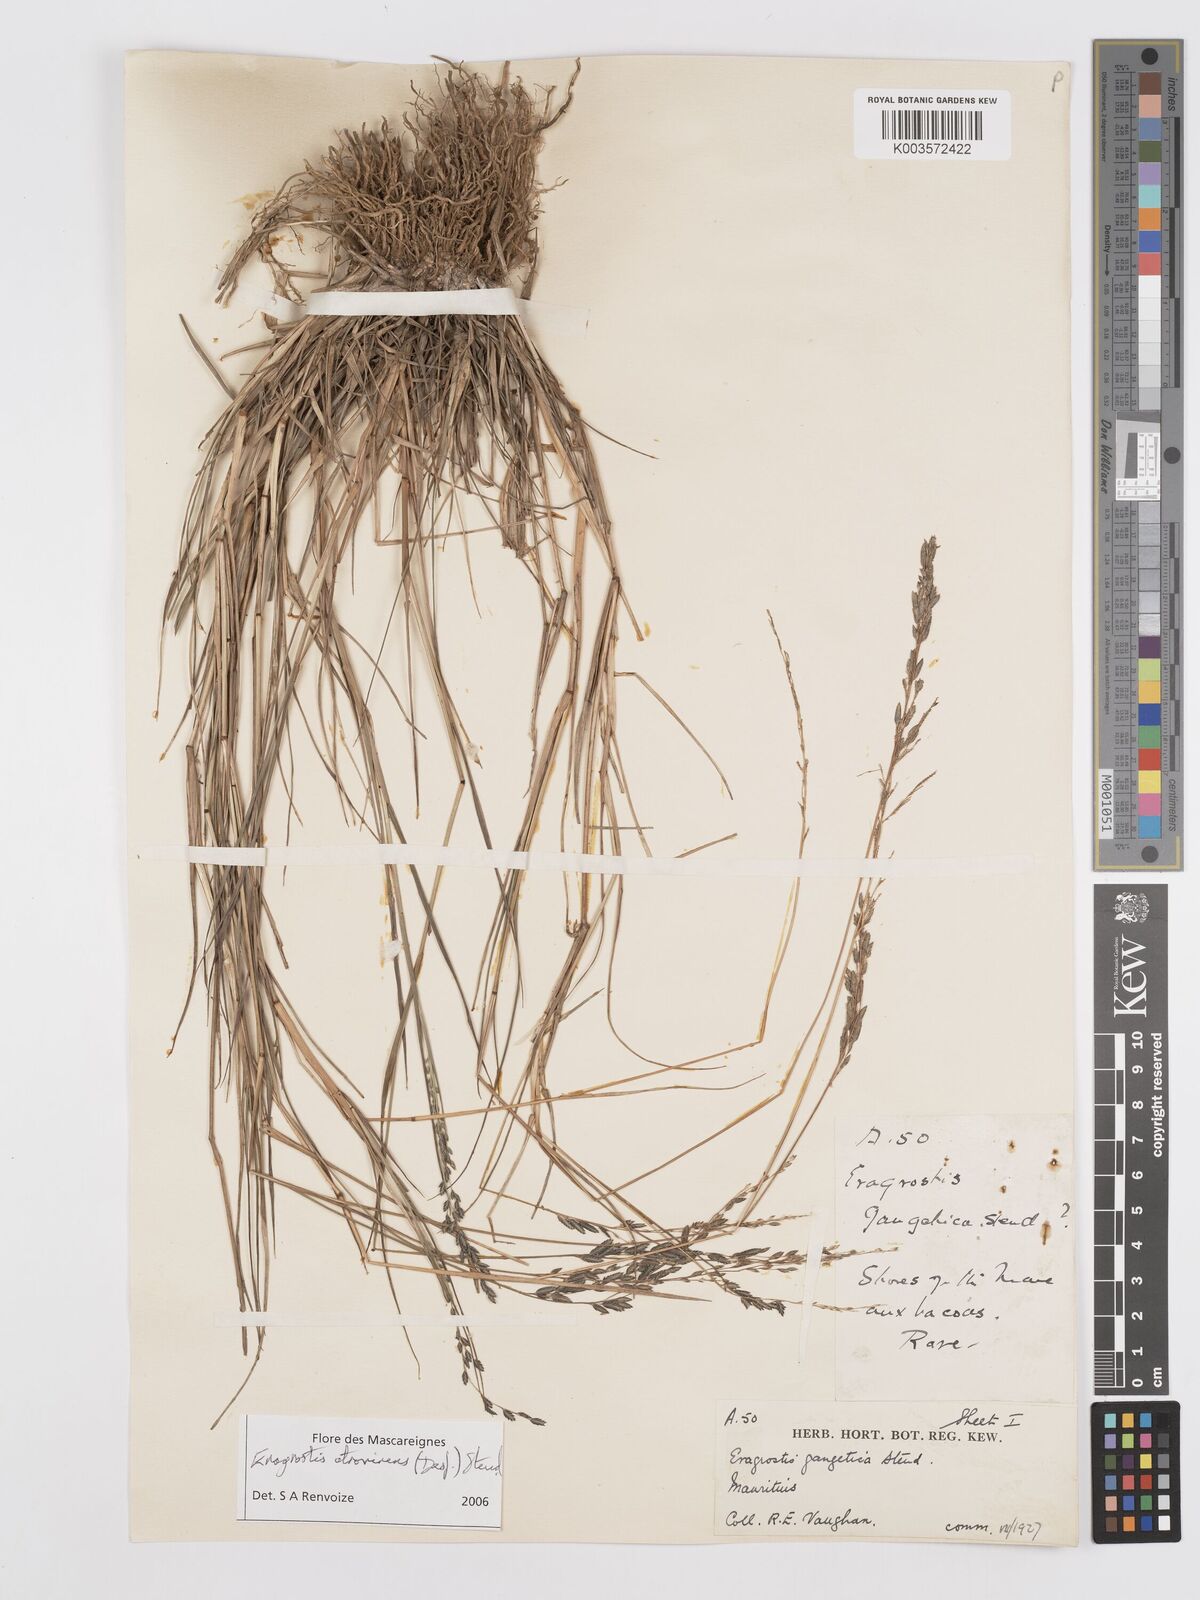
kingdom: Plantae
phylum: Tracheophyta
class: Liliopsida
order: Poales
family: Poaceae
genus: Eragrostis
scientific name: Eragrostis papposa
